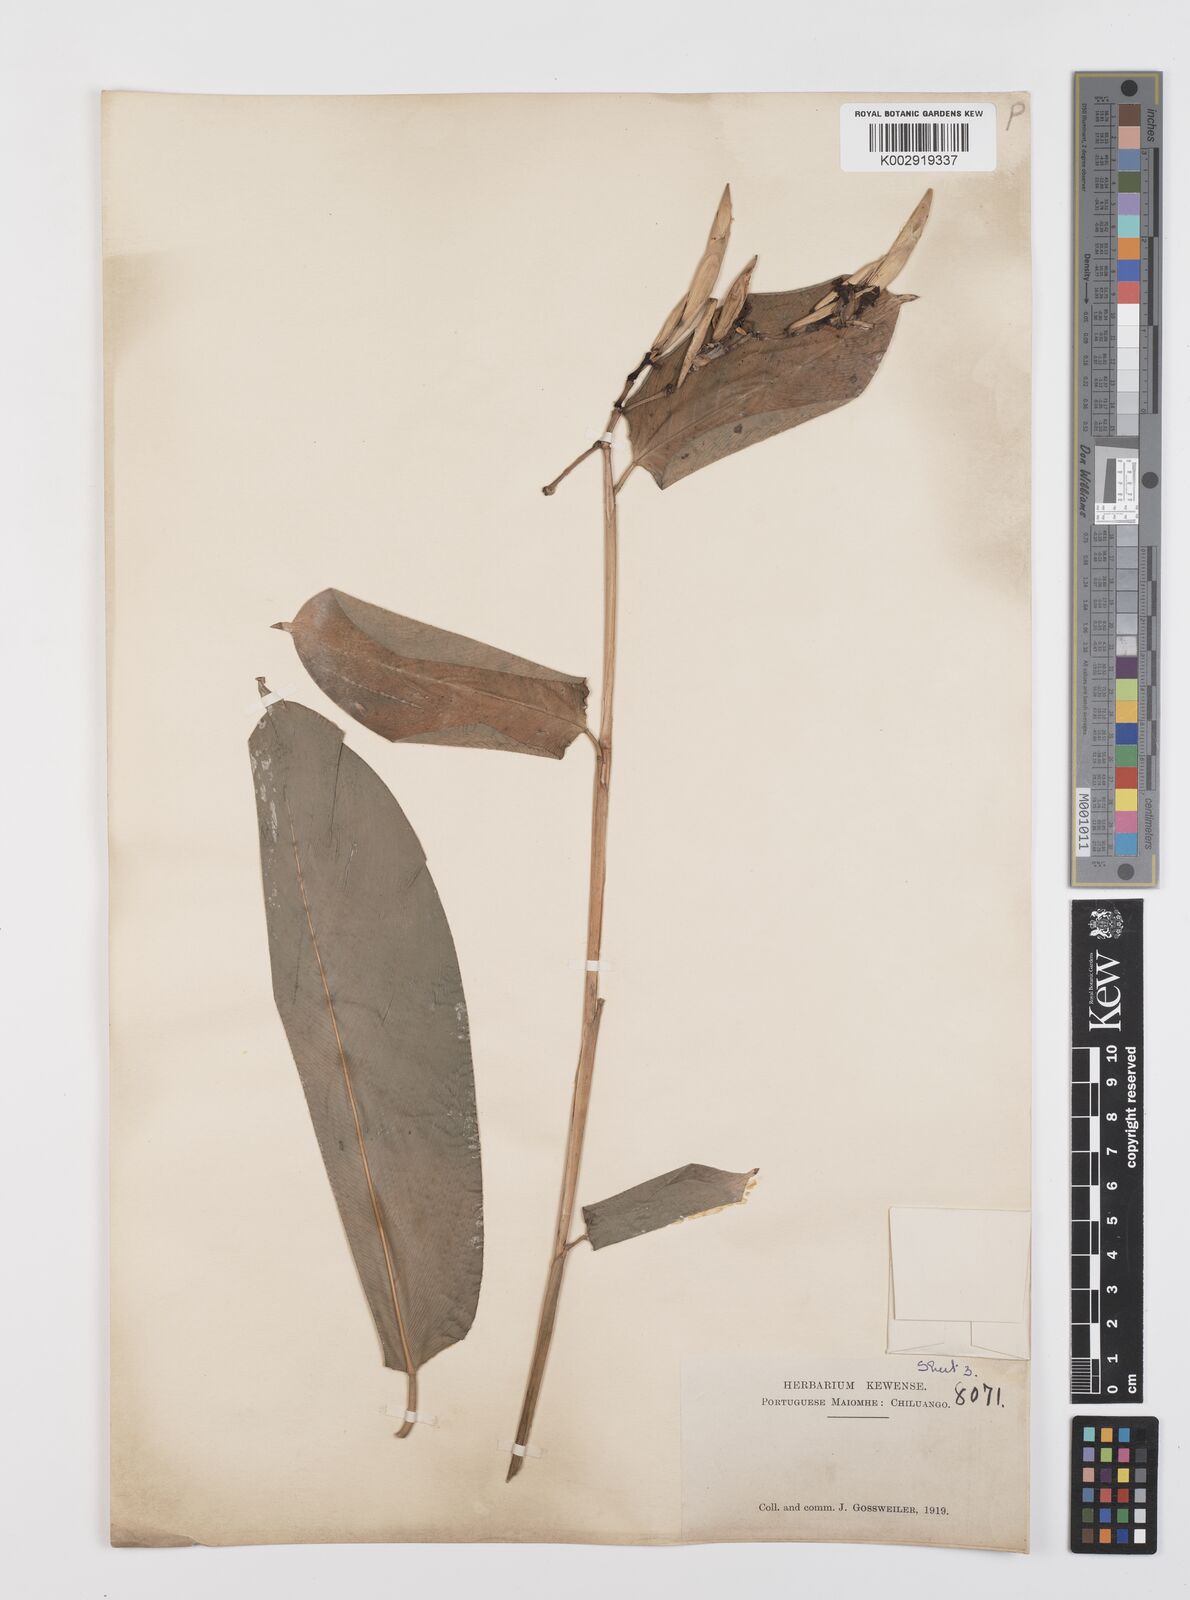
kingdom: Plantae
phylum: Tracheophyta
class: Liliopsida
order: Zingiberales
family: Marantaceae
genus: Hypselodelphys
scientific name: Hypselodelphys violacea
